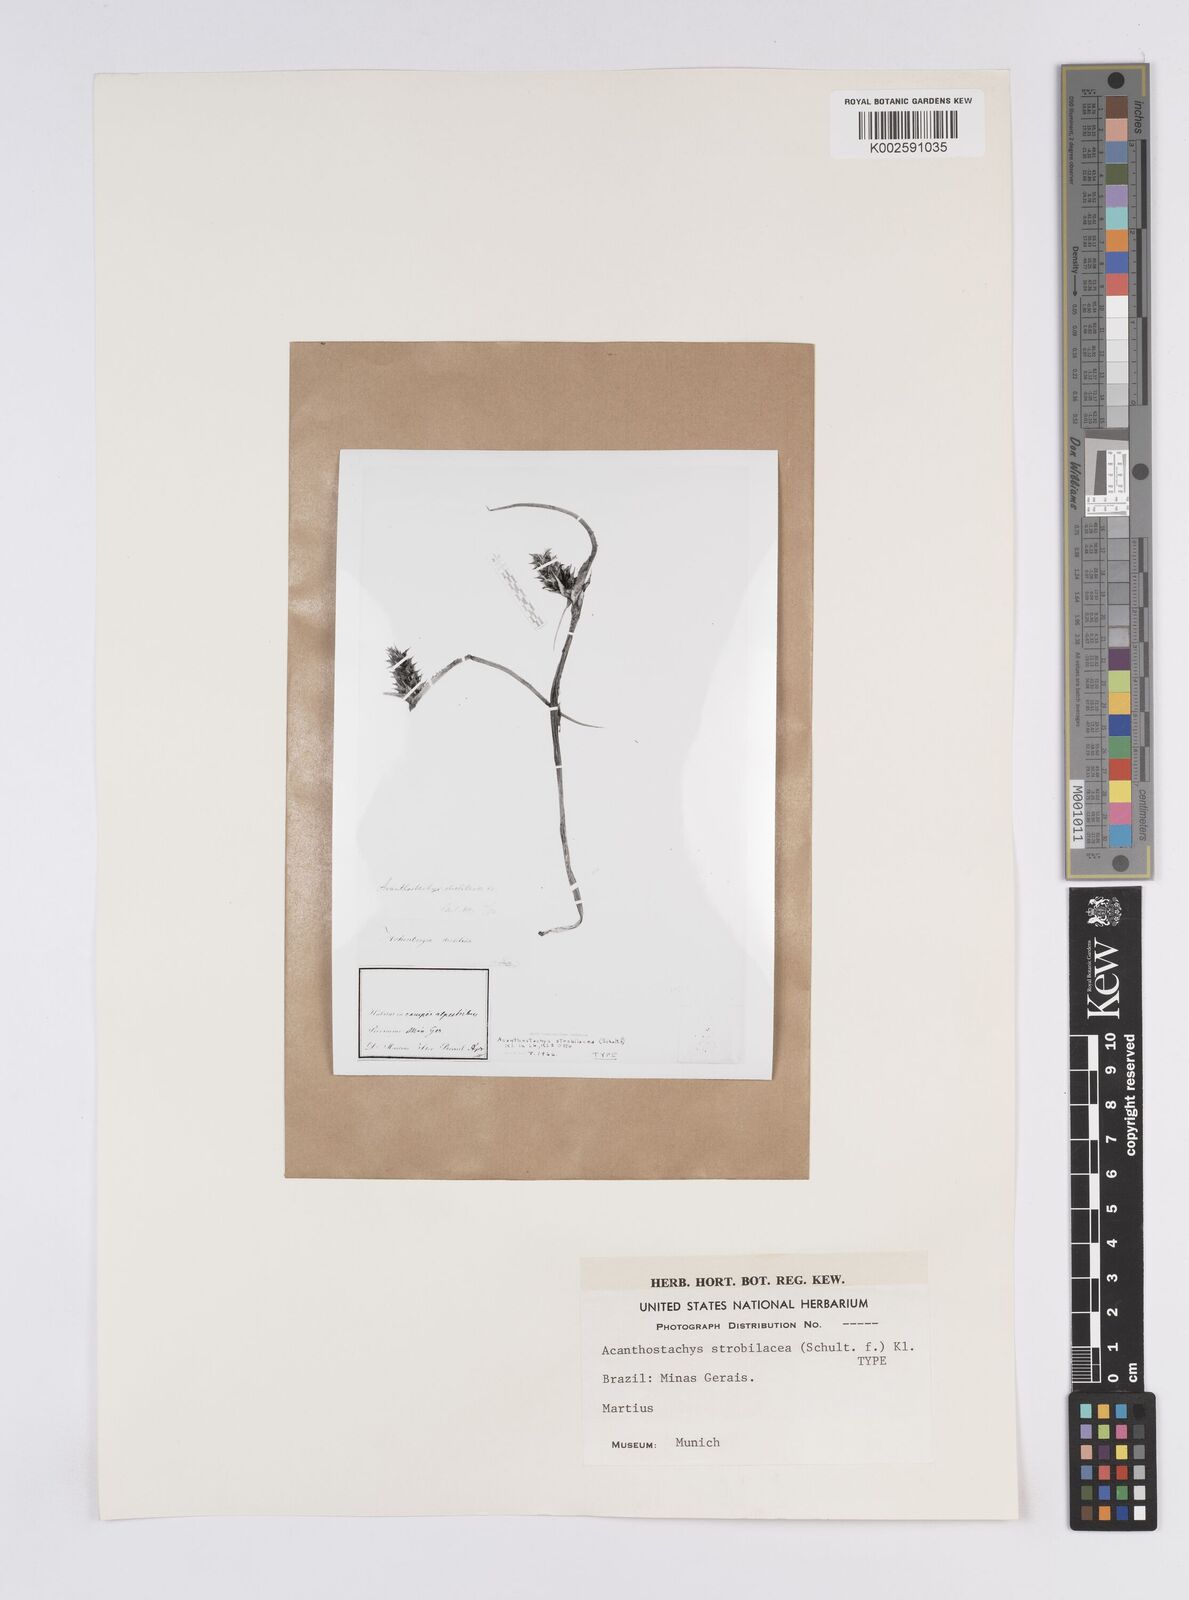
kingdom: Plantae
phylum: Tracheophyta
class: Liliopsida
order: Poales
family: Bromeliaceae
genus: Acanthostachys
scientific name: Acanthostachys strobilacea
